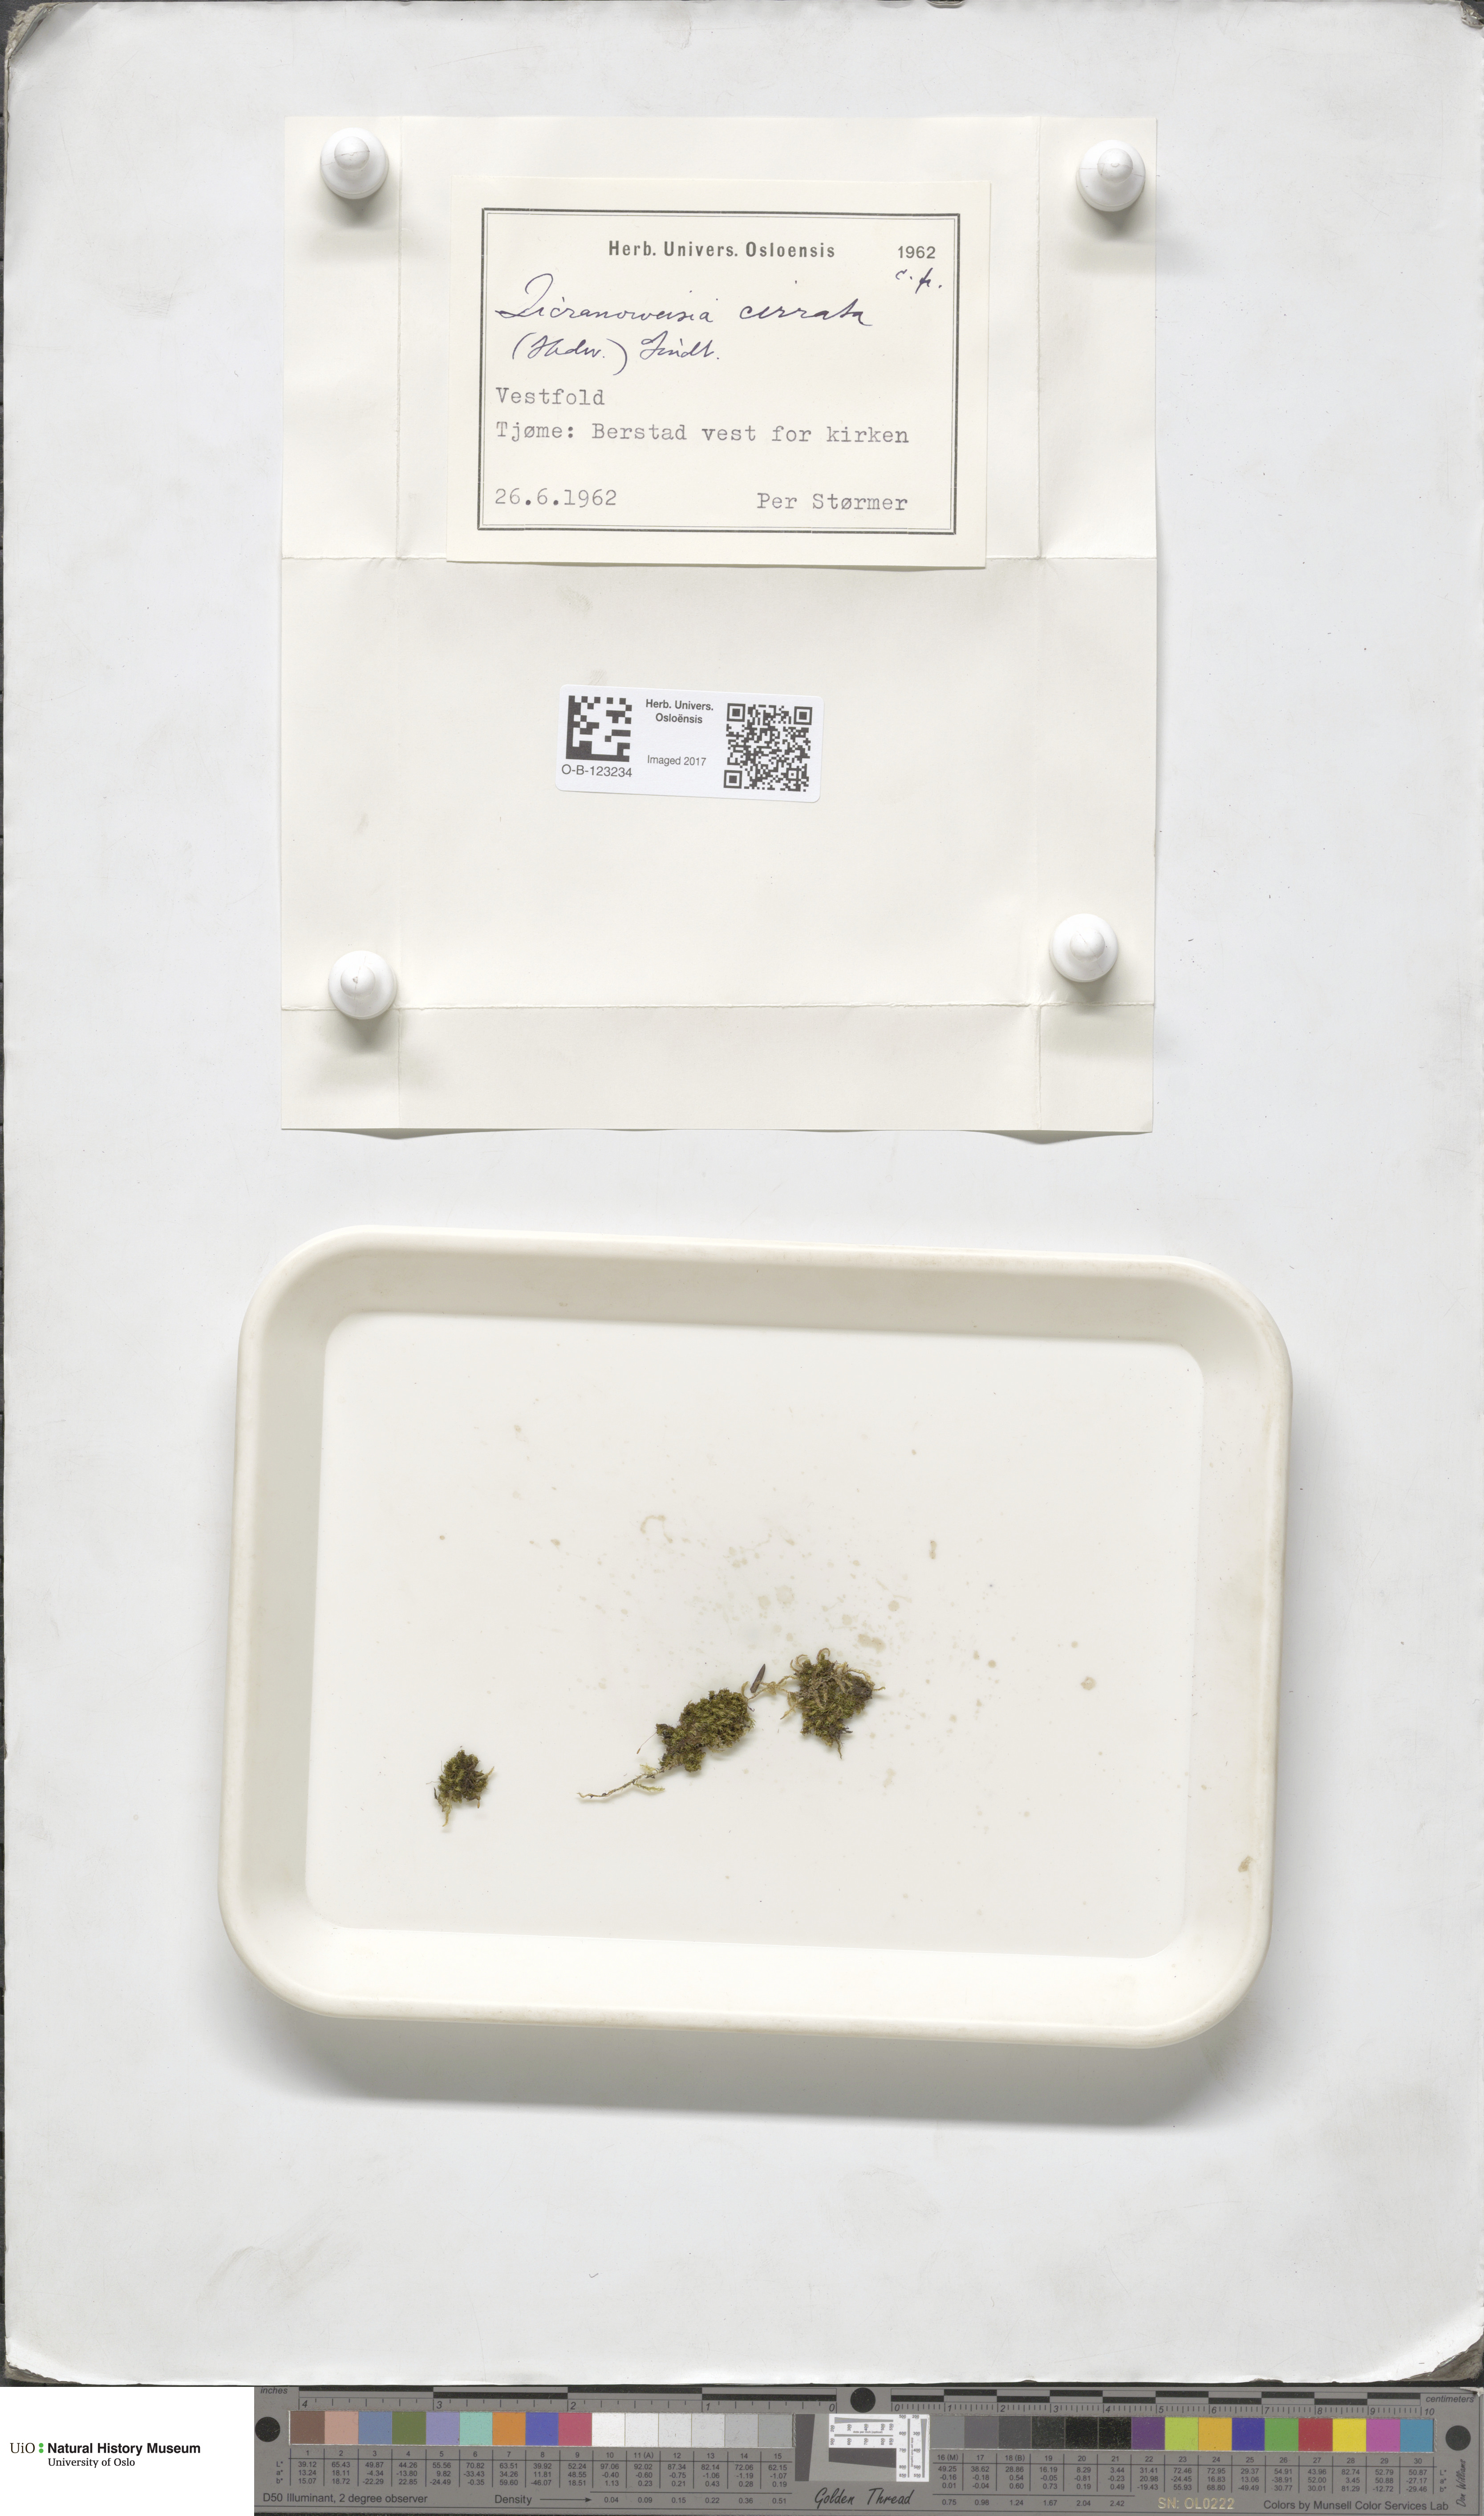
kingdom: Plantae
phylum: Bryophyta
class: Bryopsida
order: Dicranales
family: Rhabdoweisiaceae
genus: Dicranoweisia
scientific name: Dicranoweisia cirrata
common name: Common pincushion
